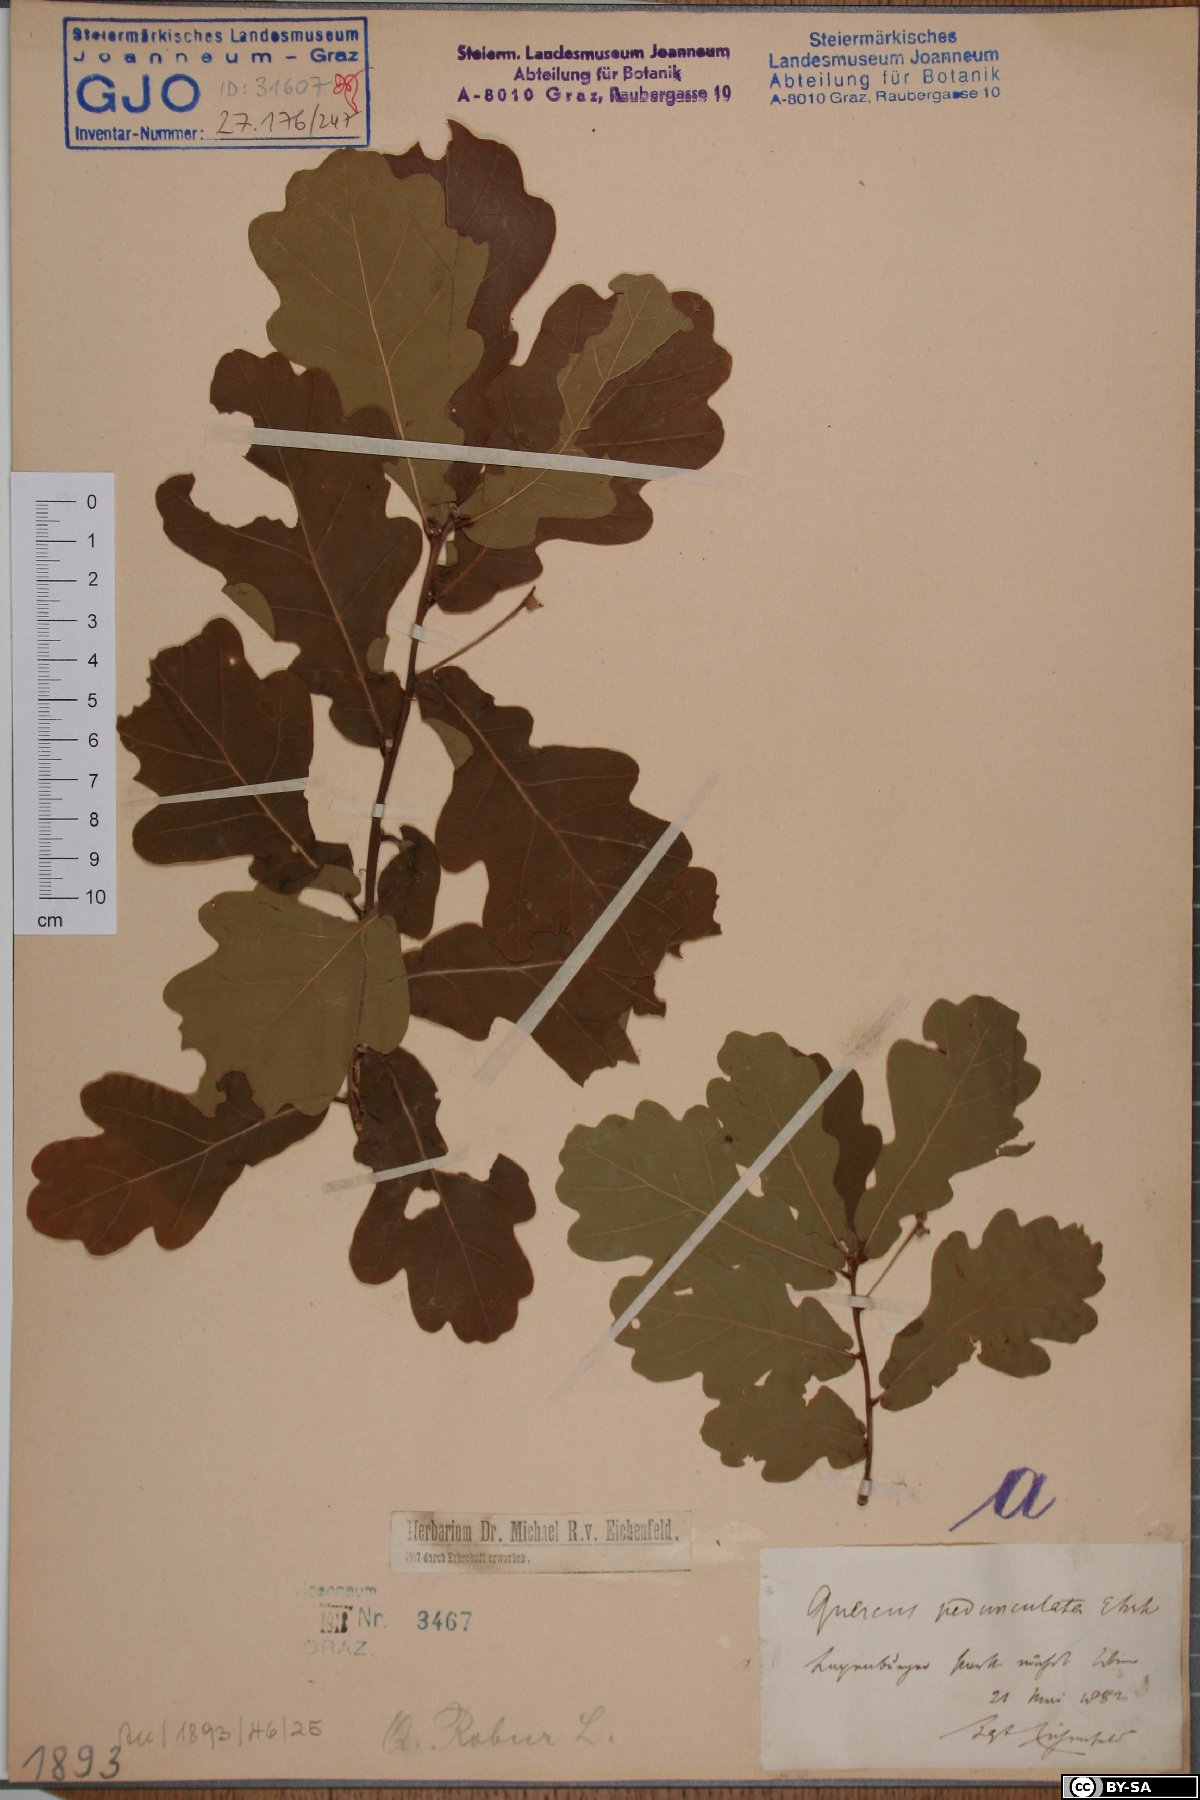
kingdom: Plantae
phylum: Tracheophyta
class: Magnoliopsida
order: Fagales
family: Fagaceae
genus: Quercus
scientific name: Quercus robur
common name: Pedunculate oak
